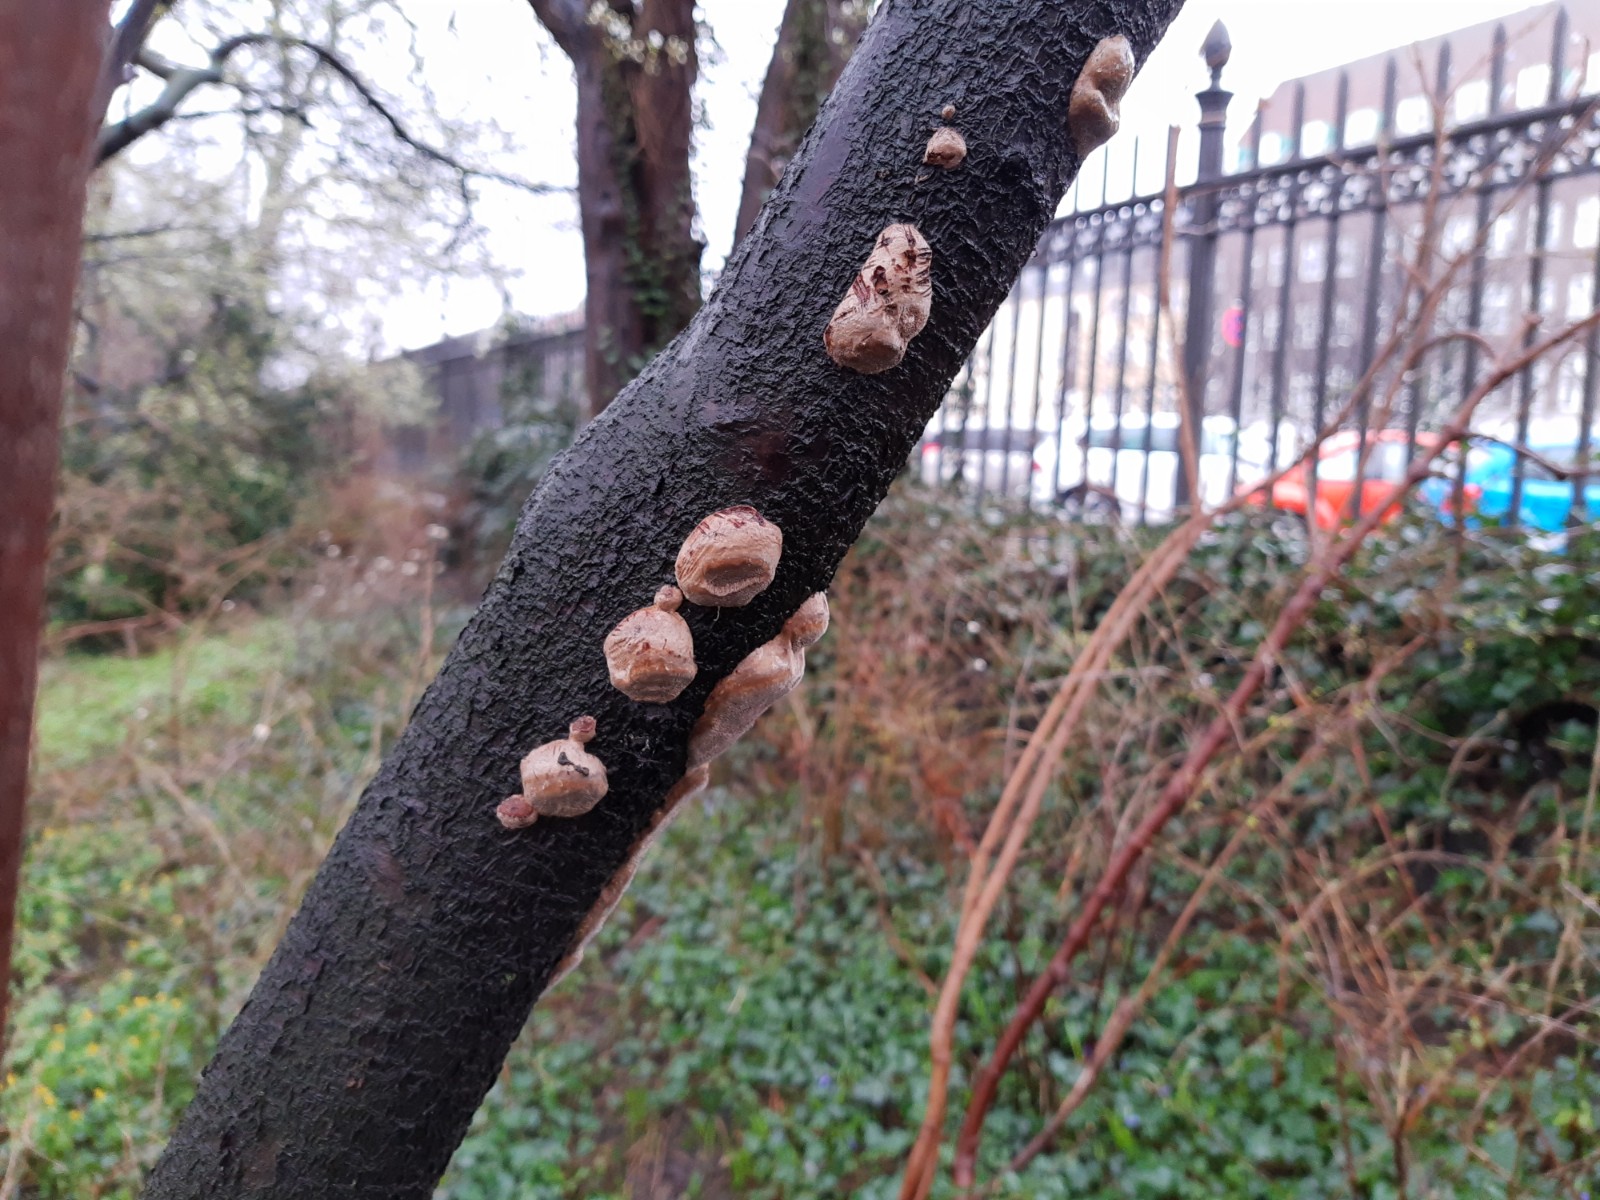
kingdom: Fungi
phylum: Basidiomycota
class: Agaricomycetes
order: Hymenochaetales
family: Hymenochaetaceae
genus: Phellinus
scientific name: Phellinus pomaceus
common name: blomme-ildporesvamp
